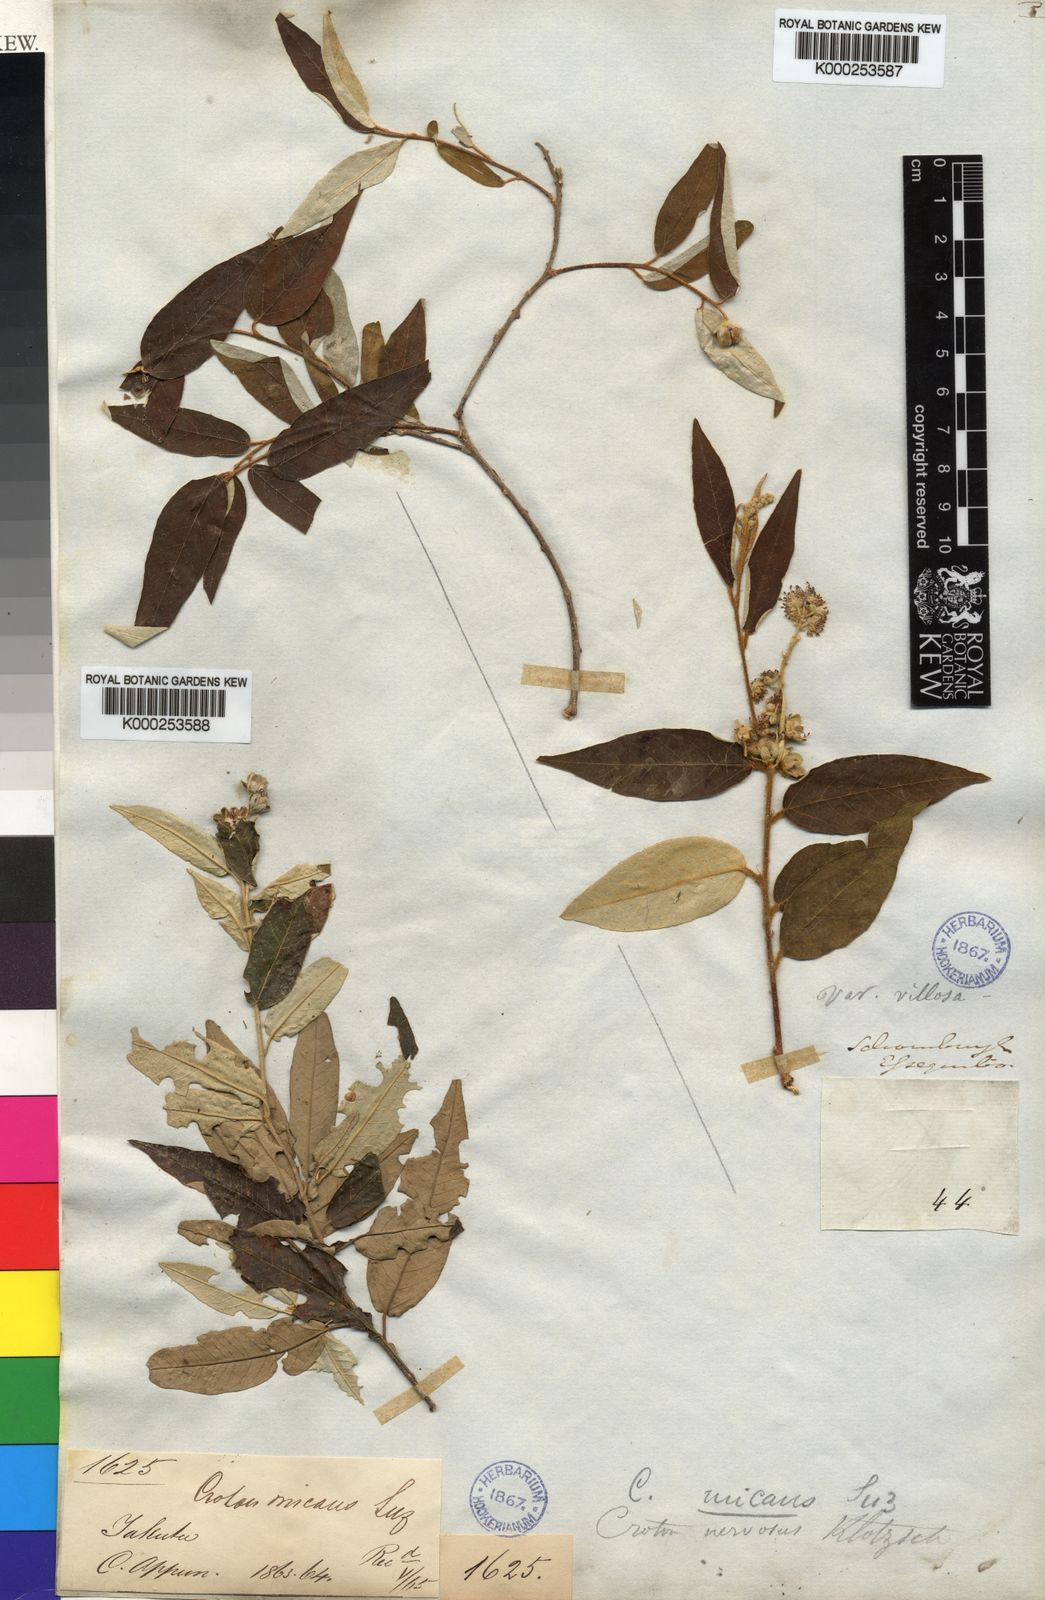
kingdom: Plantae
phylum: Tracheophyta
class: Magnoliopsida
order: Malpighiales
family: Euphorbiaceae
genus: Croton
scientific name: Croton argyrophyllus
